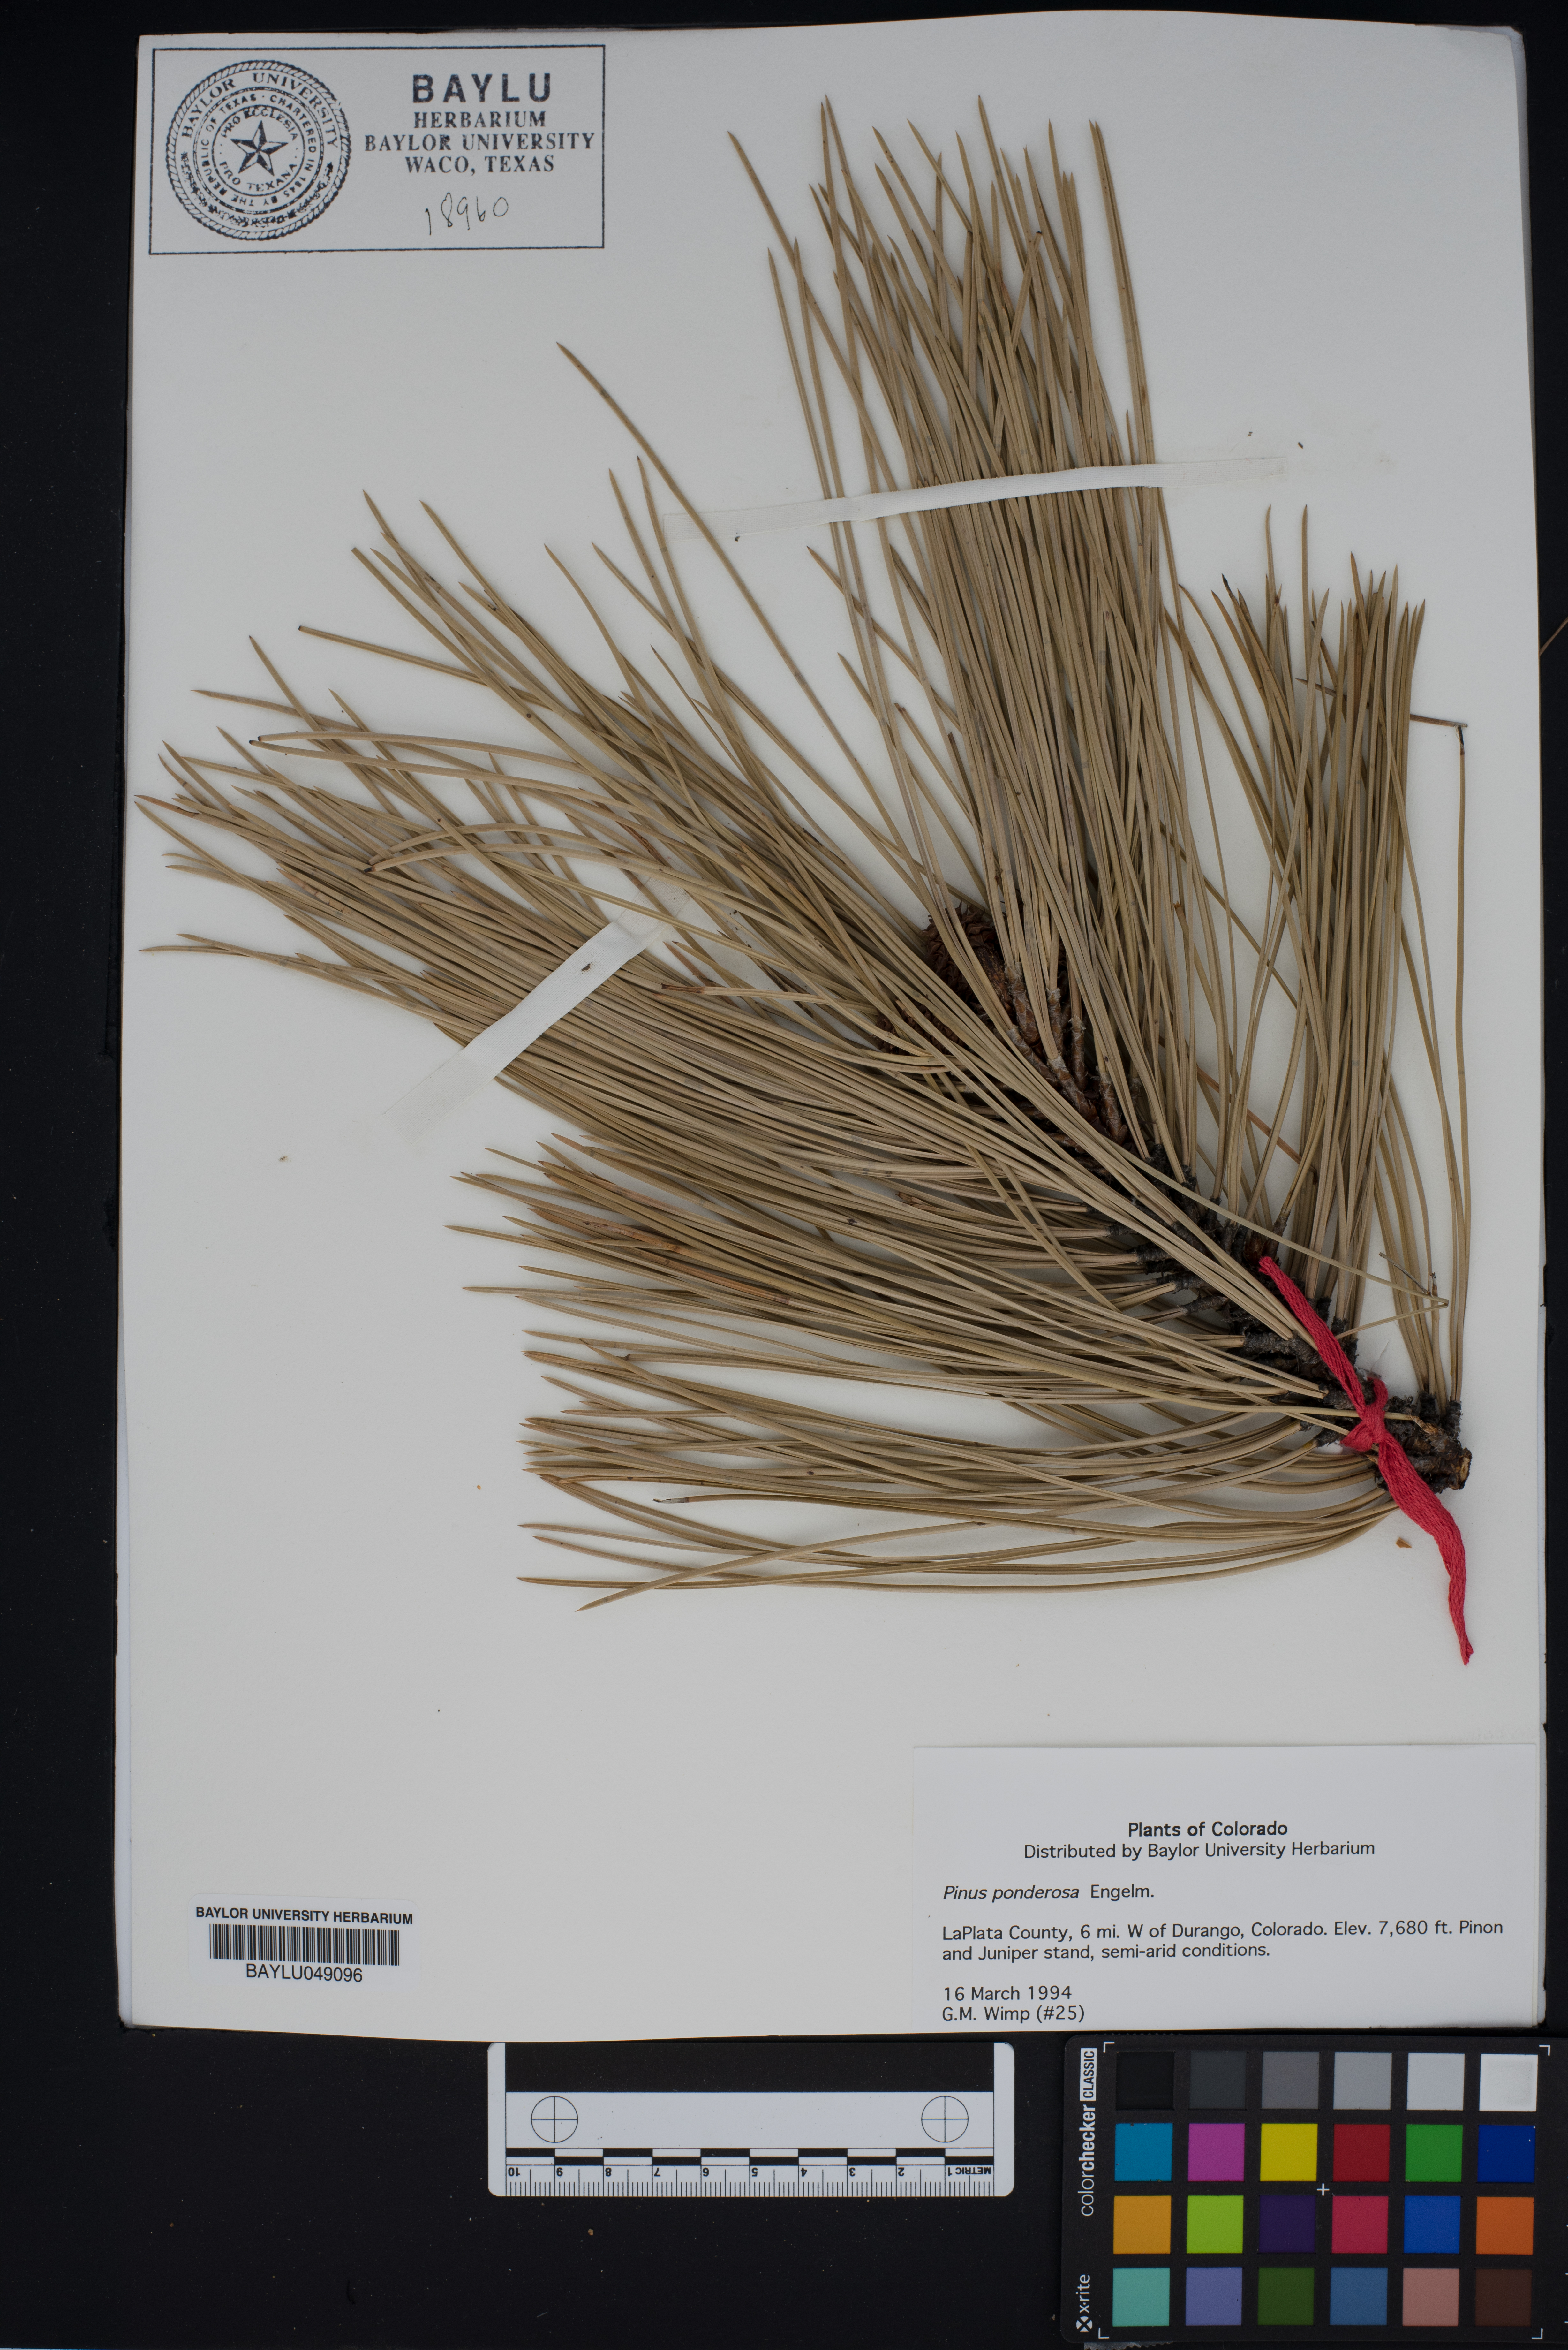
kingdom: Plantae
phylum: Tracheophyta
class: Pinopsida
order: Pinales
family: Pinaceae
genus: Pinus
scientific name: Pinus ponderosa
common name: Western yellow-pine
